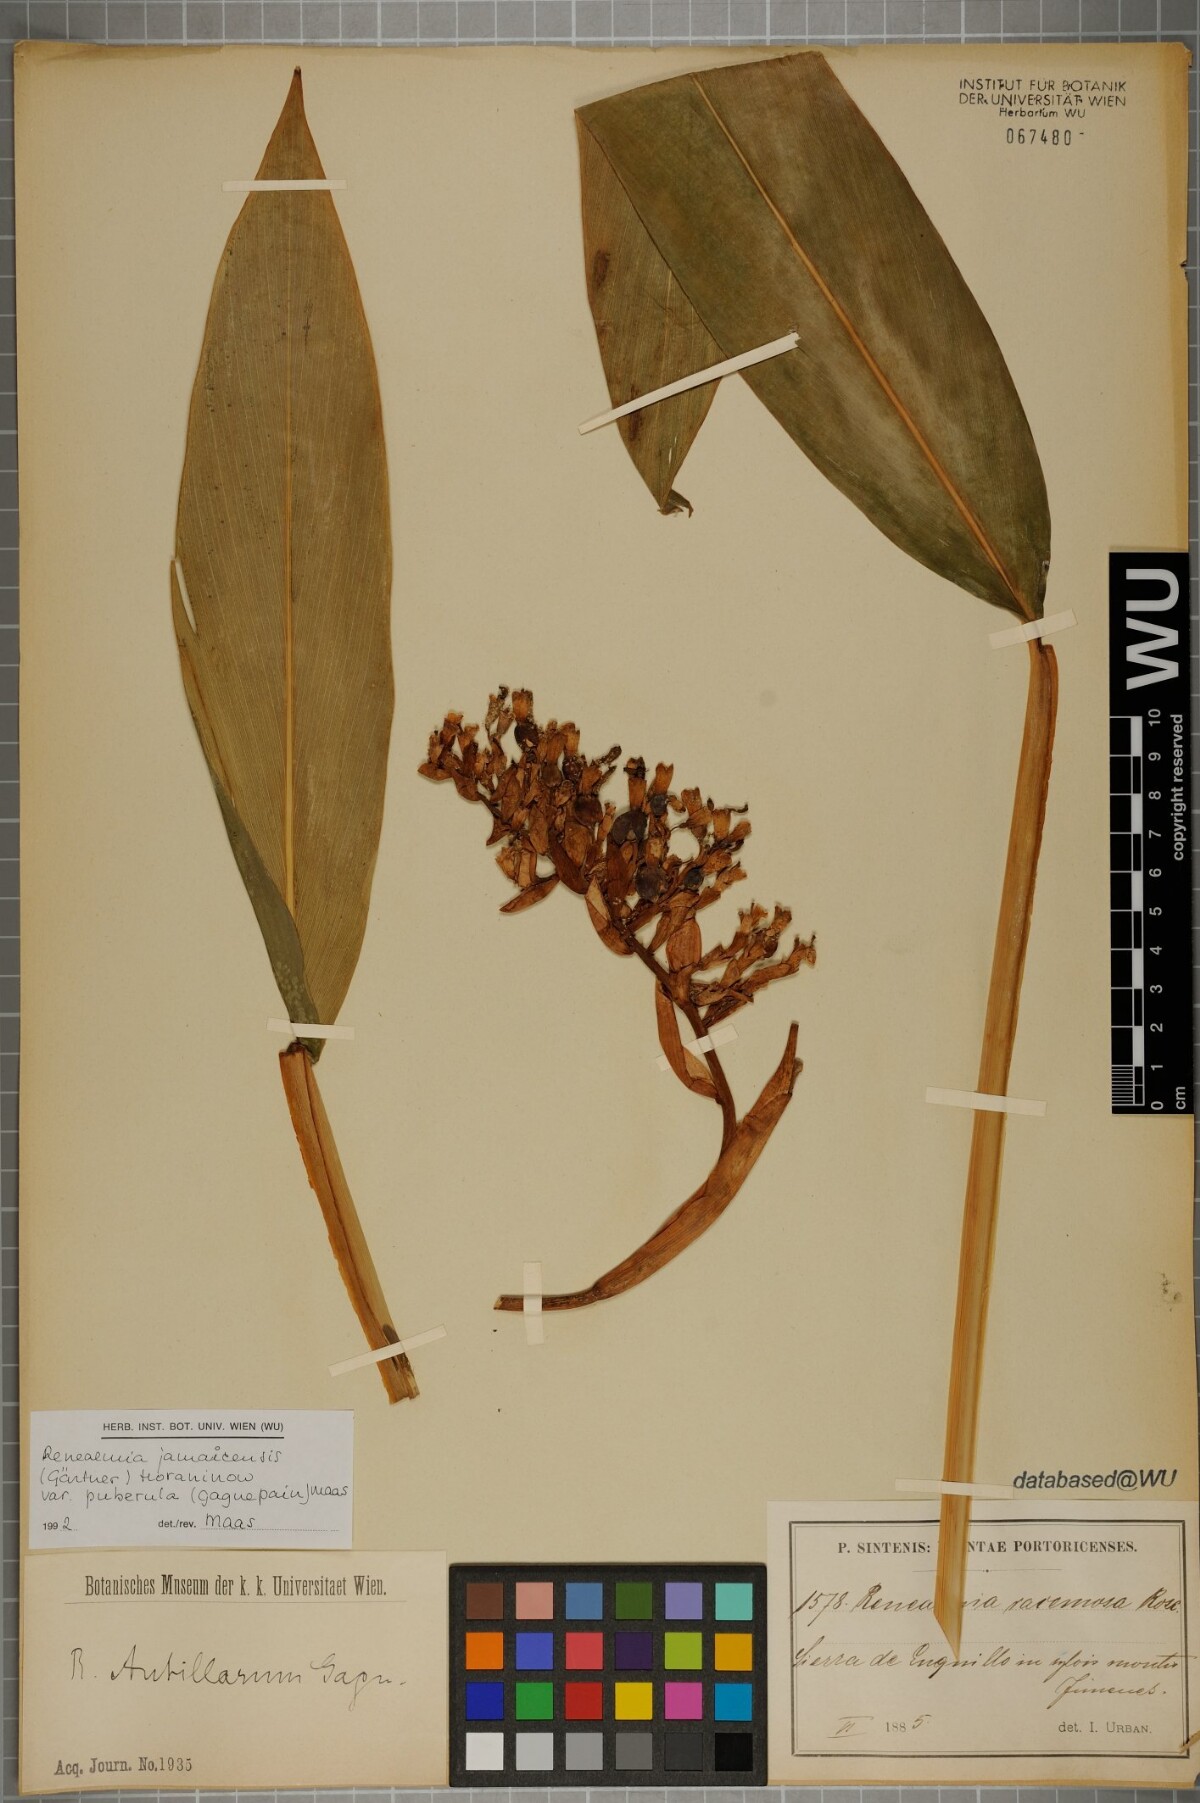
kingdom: Plantae
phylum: Tracheophyta
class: Liliopsida
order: Zingiberales
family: Zingiberaceae
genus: Renealmia
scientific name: Renealmia jamaicensis
